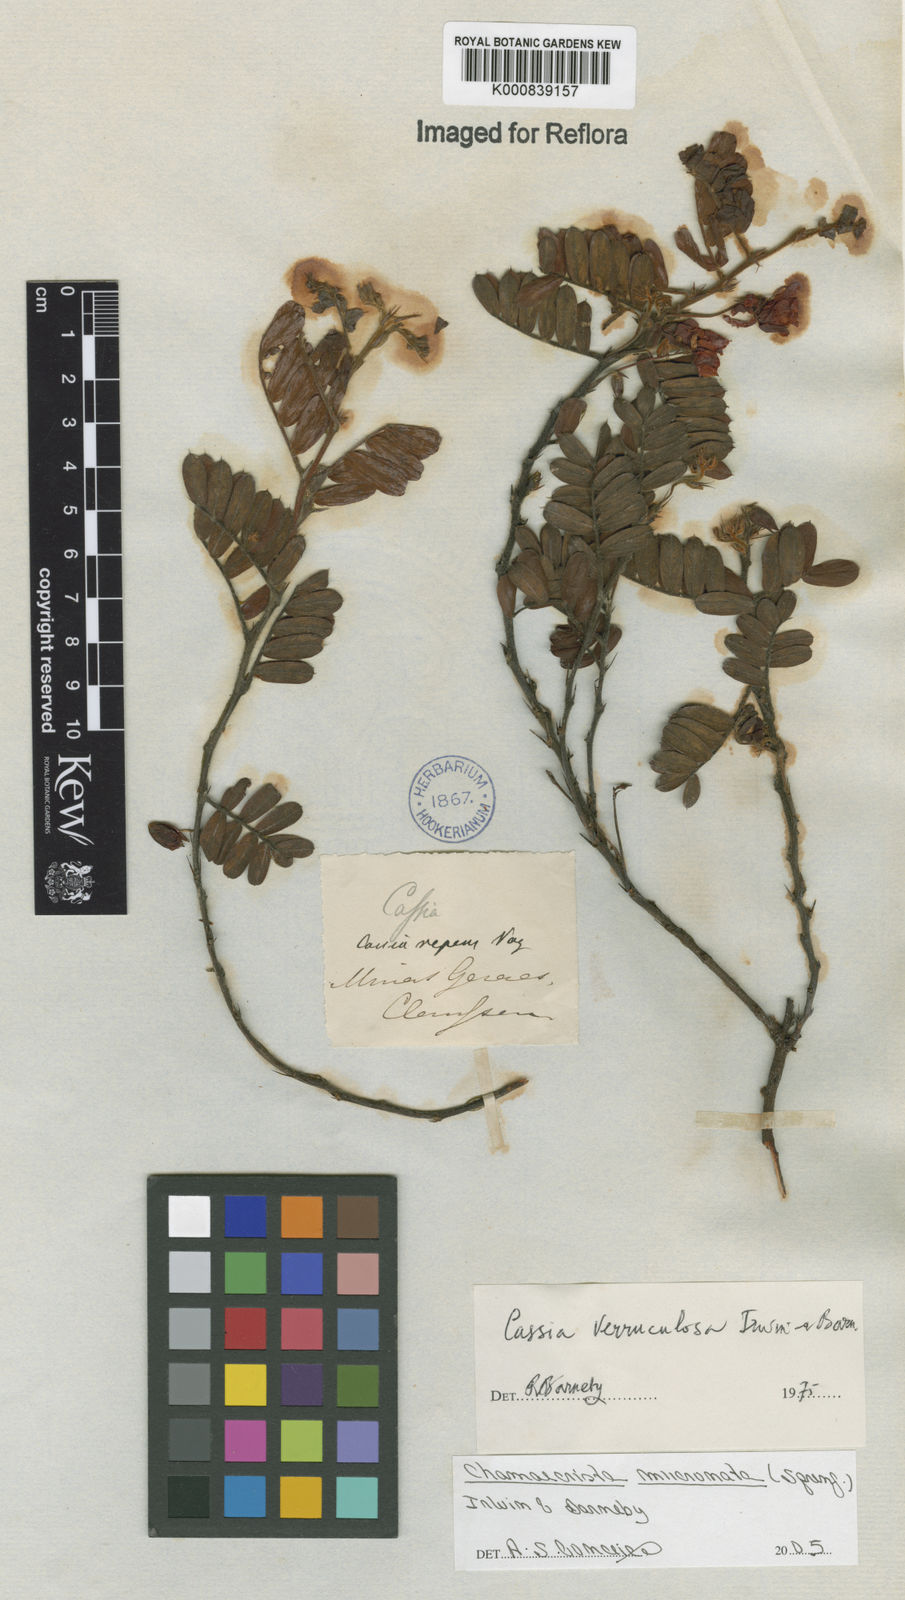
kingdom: Plantae
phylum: Tracheophyta
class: Magnoliopsida
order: Fabales
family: Fabaceae
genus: Chamaecrista
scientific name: Chamaecrista mucronata
